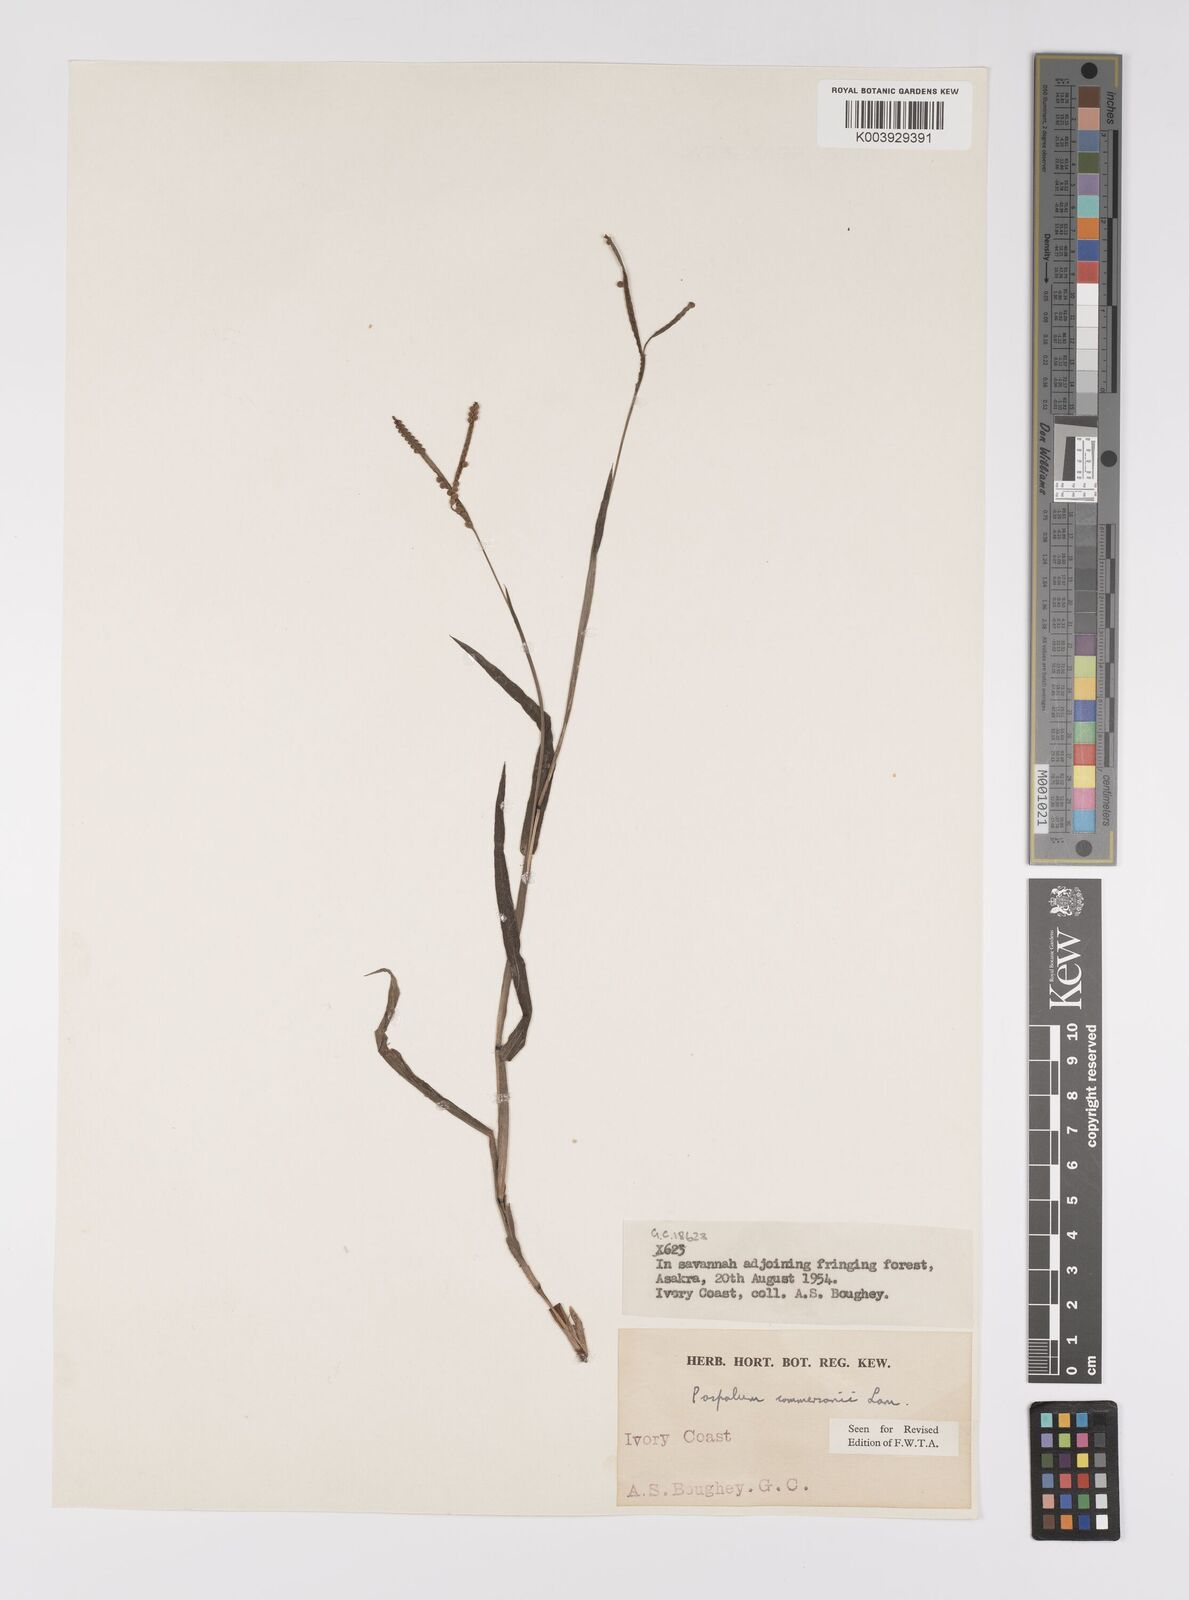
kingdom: Plantae
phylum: Tracheophyta
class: Liliopsida
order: Poales
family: Poaceae
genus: Paspalum
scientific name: Paspalum scrobiculatum
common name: Kodo millet
